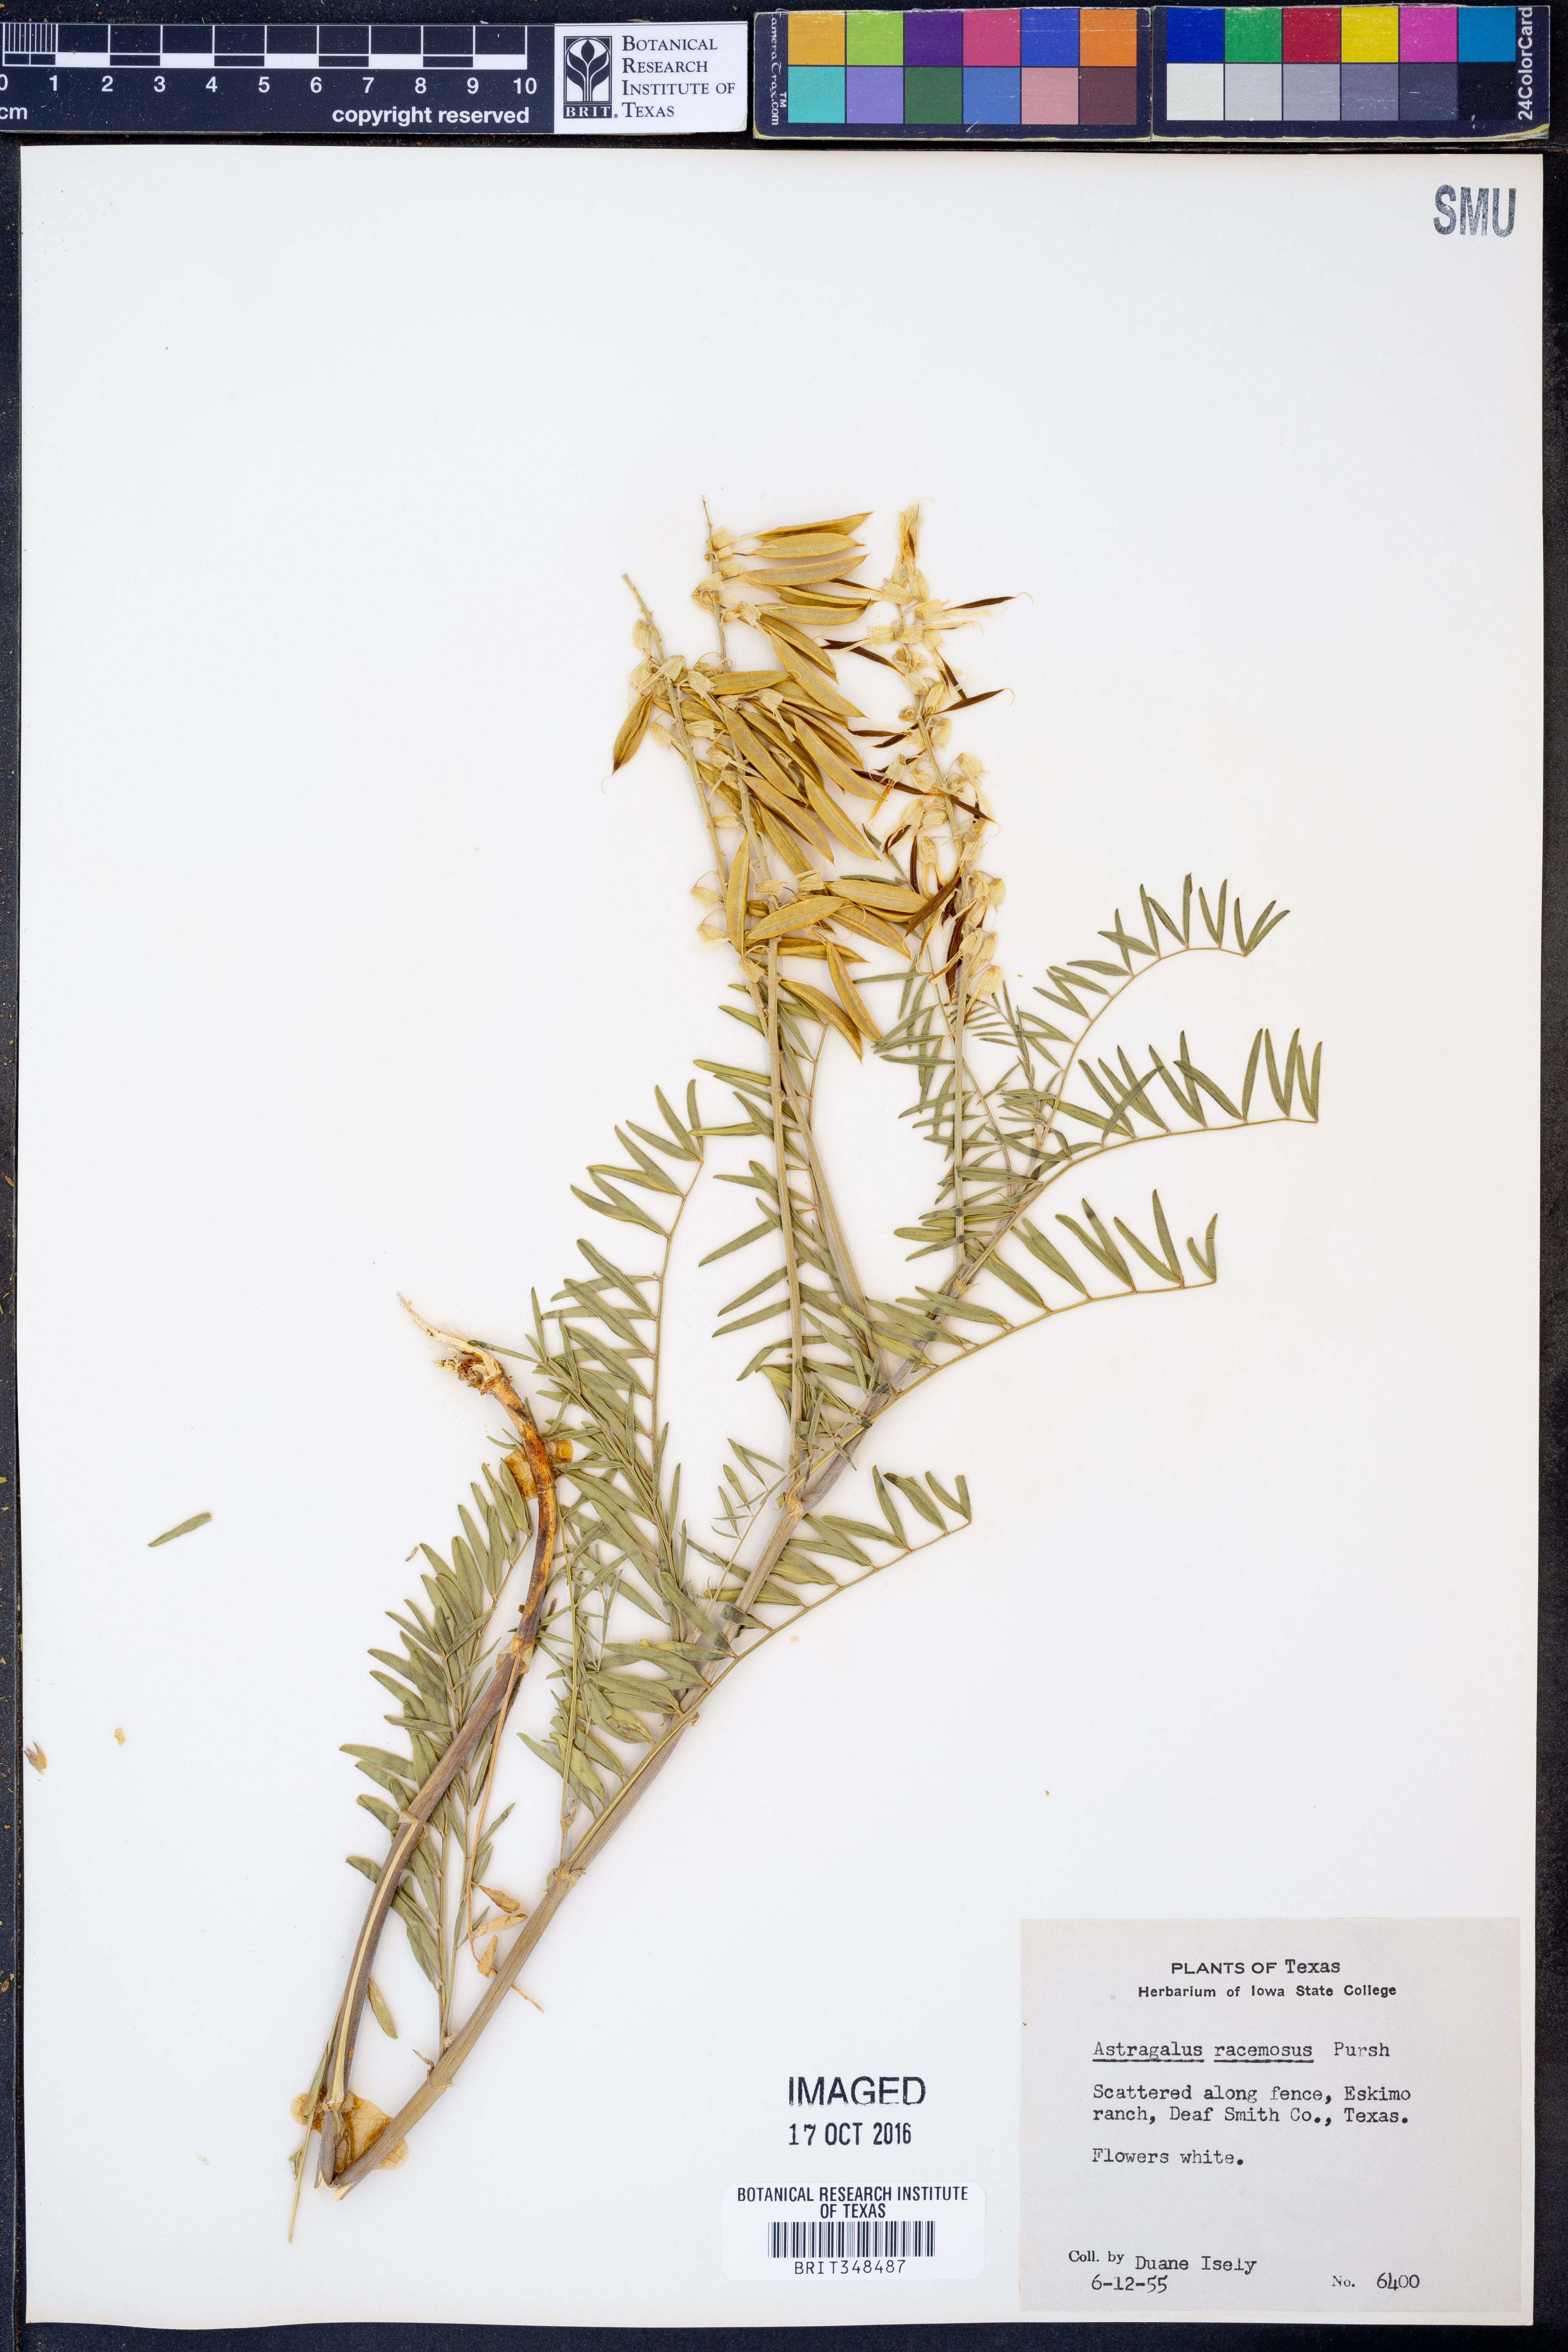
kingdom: Plantae
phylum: Tracheophyta
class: Magnoliopsida
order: Fabales
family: Fabaceae
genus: Astragalus
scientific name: Astragalus racemosus
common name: Alkali milk-vetch
